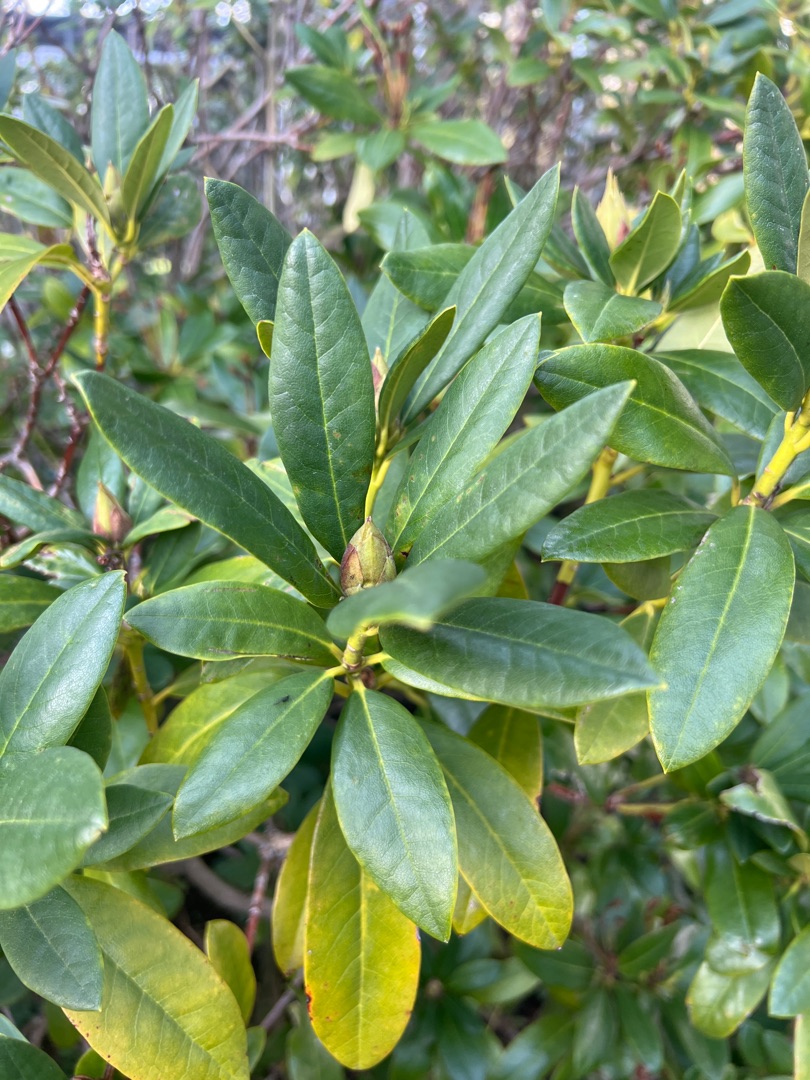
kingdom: Plantae
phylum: Tracheophyta
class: Magnoliopsida
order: Ericales
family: Ericaceae
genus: Rhododendron
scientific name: Rhododendron
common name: Rhododendronslægten
